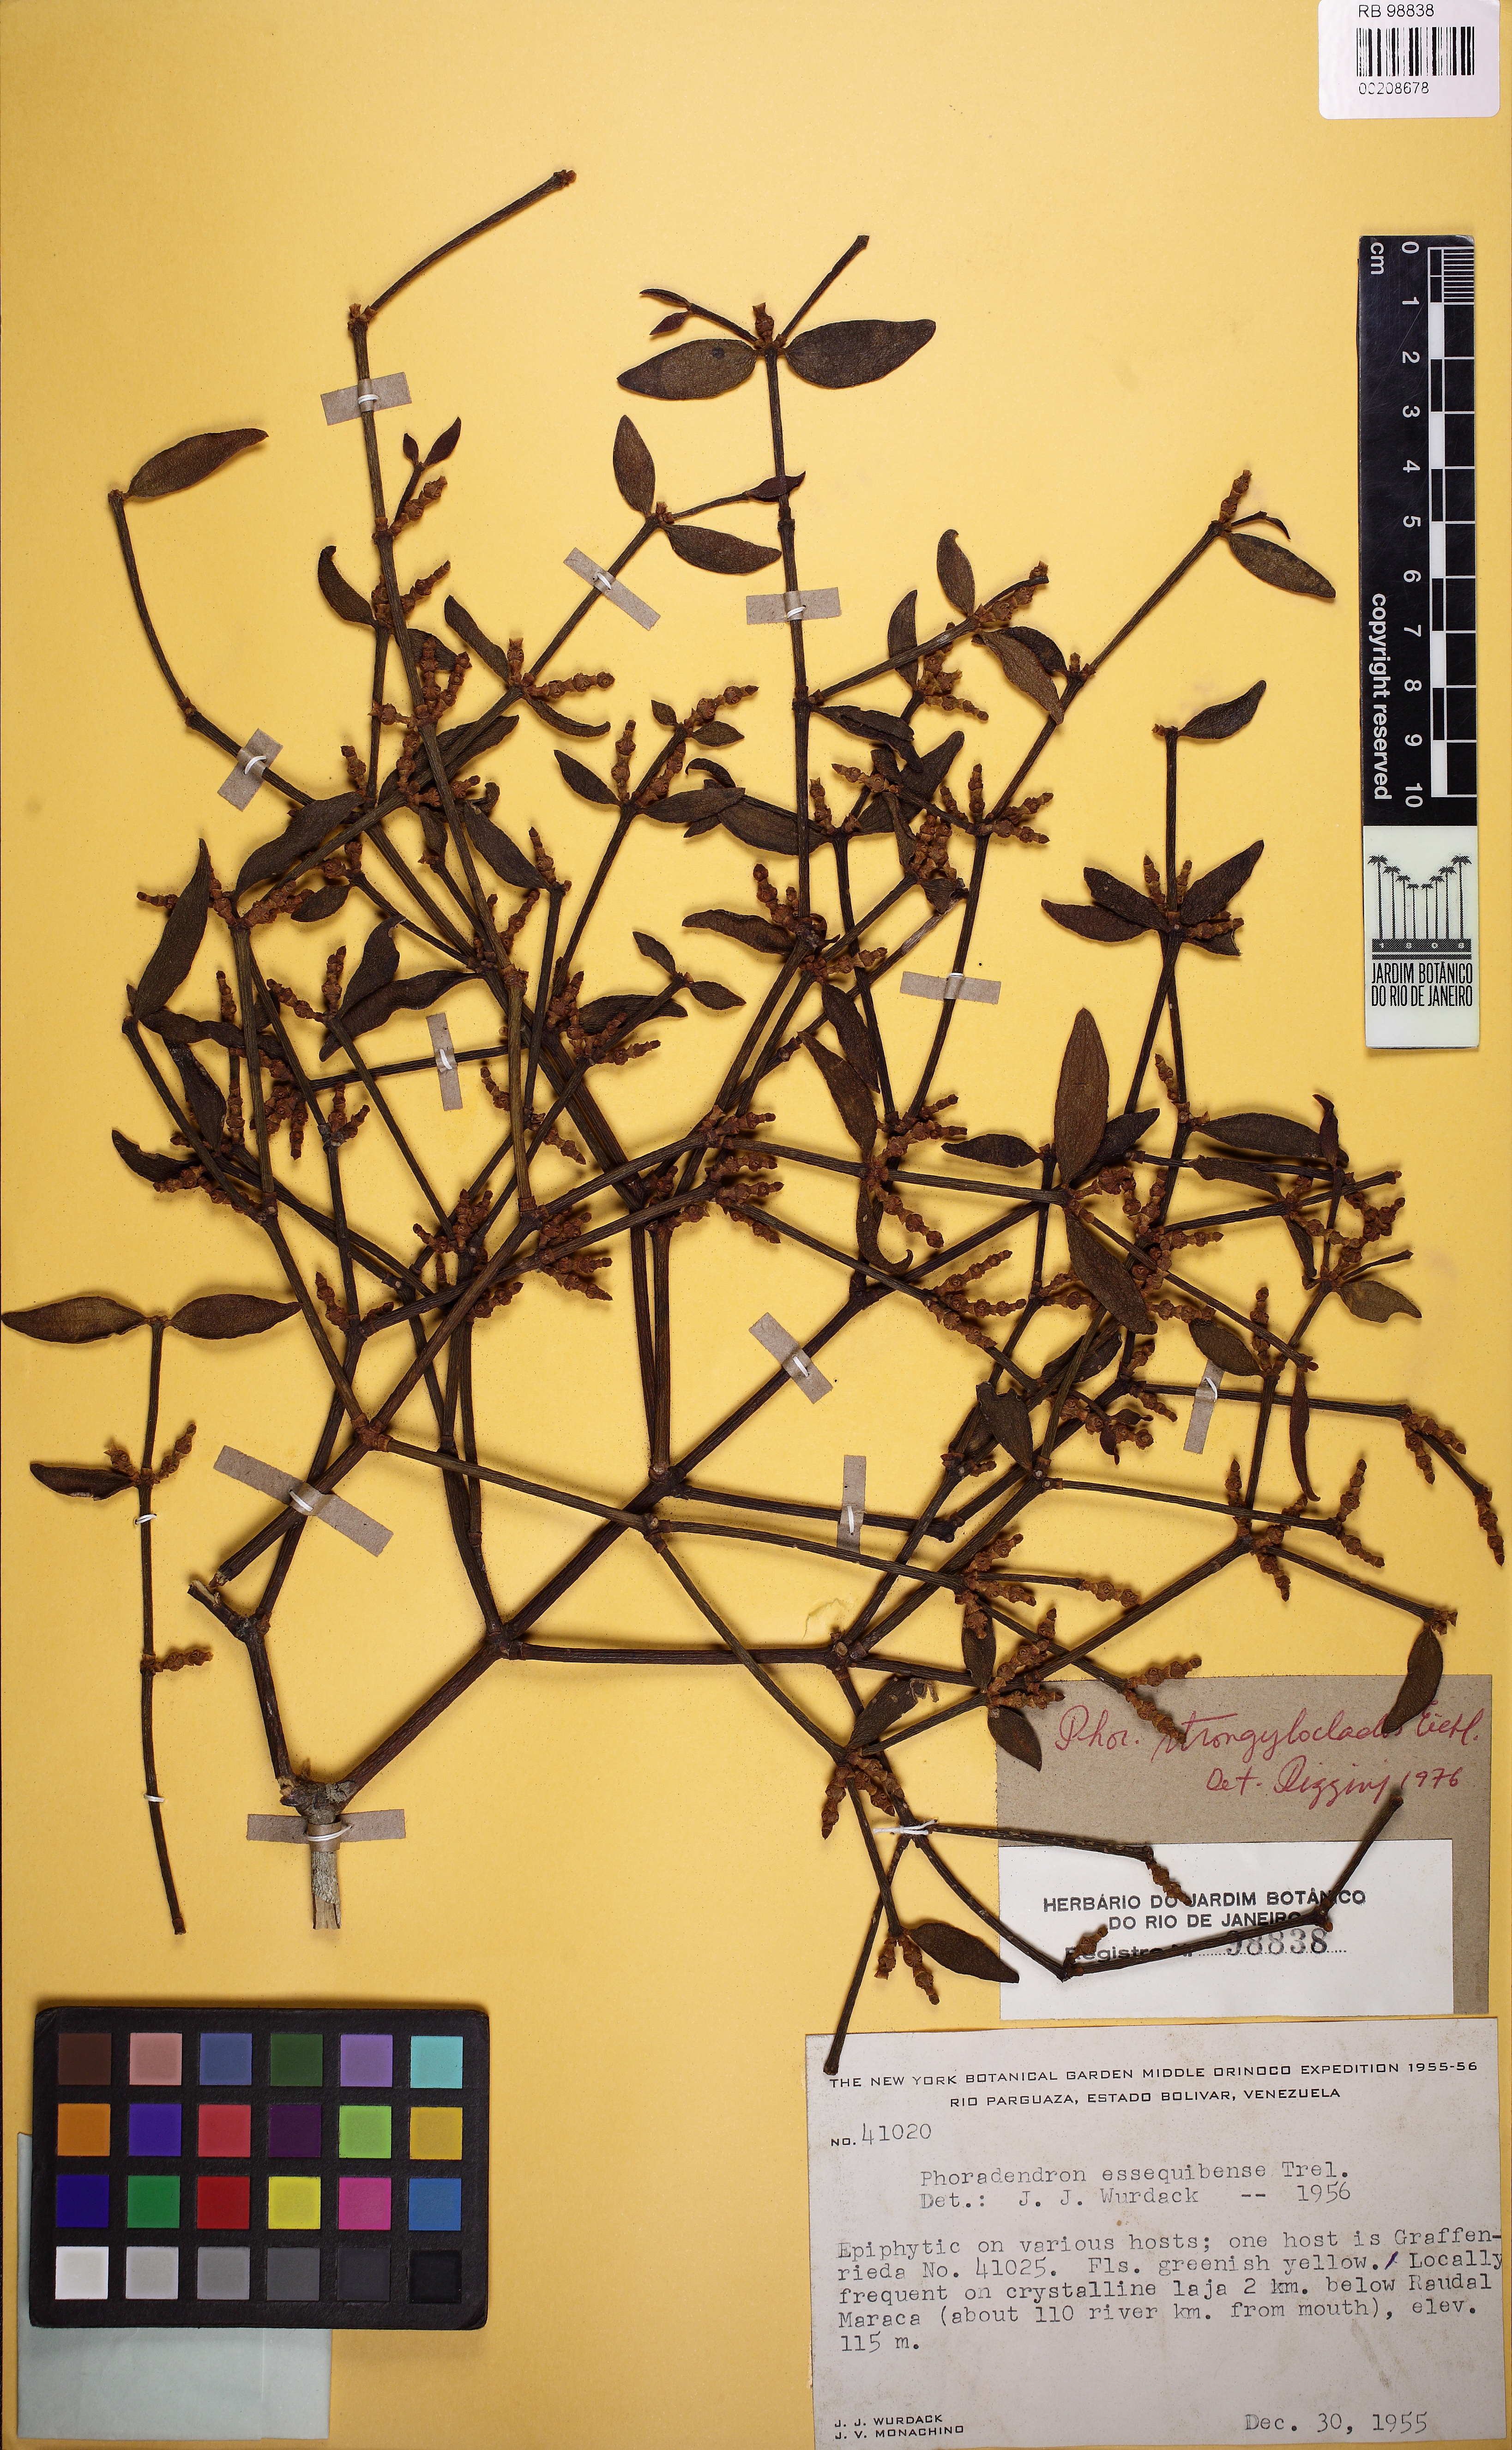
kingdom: Plantae
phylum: Tracheophyta
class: Magnoliopsida
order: Santalales
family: Viscaceae
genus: Phoradendron
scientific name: Phoradendron strongyloclados
